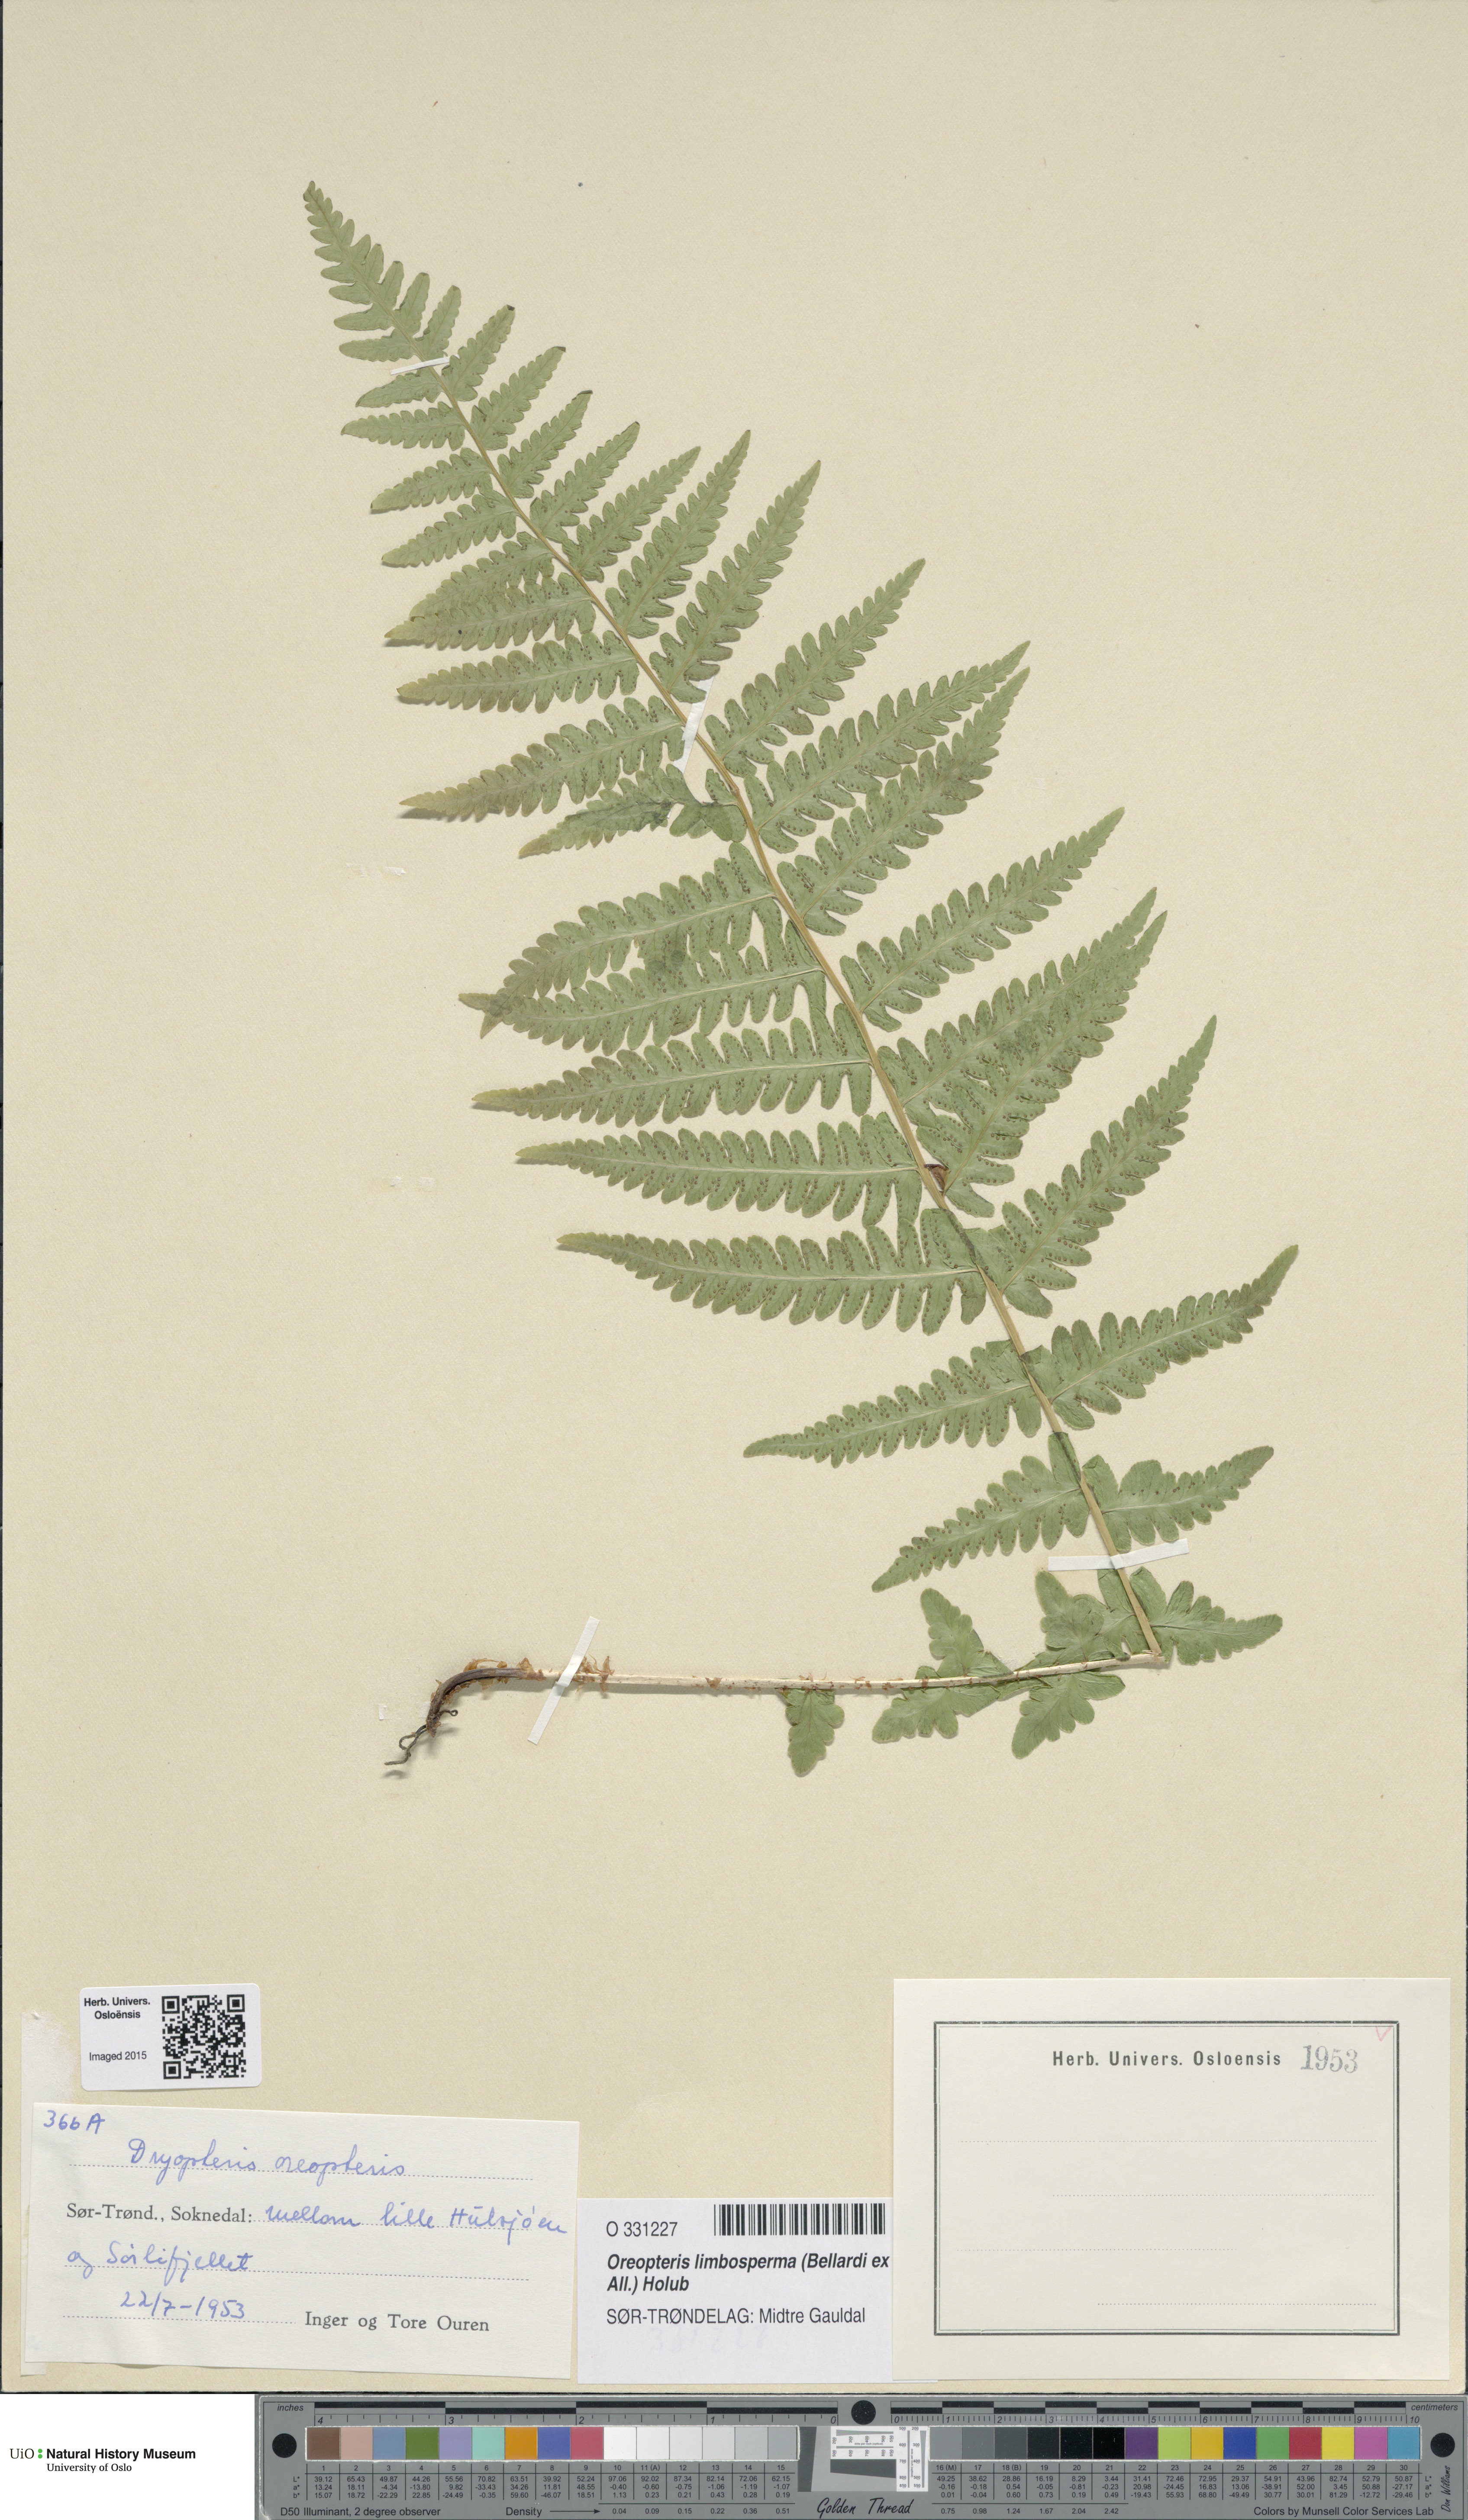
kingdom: Plantae
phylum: Tracheophyta
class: Polypodiopsida
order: Polypodiales
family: Thelypteridaceae
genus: Oreopteris
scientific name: Oreopteris limbosperma
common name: Lemon-scented fern
